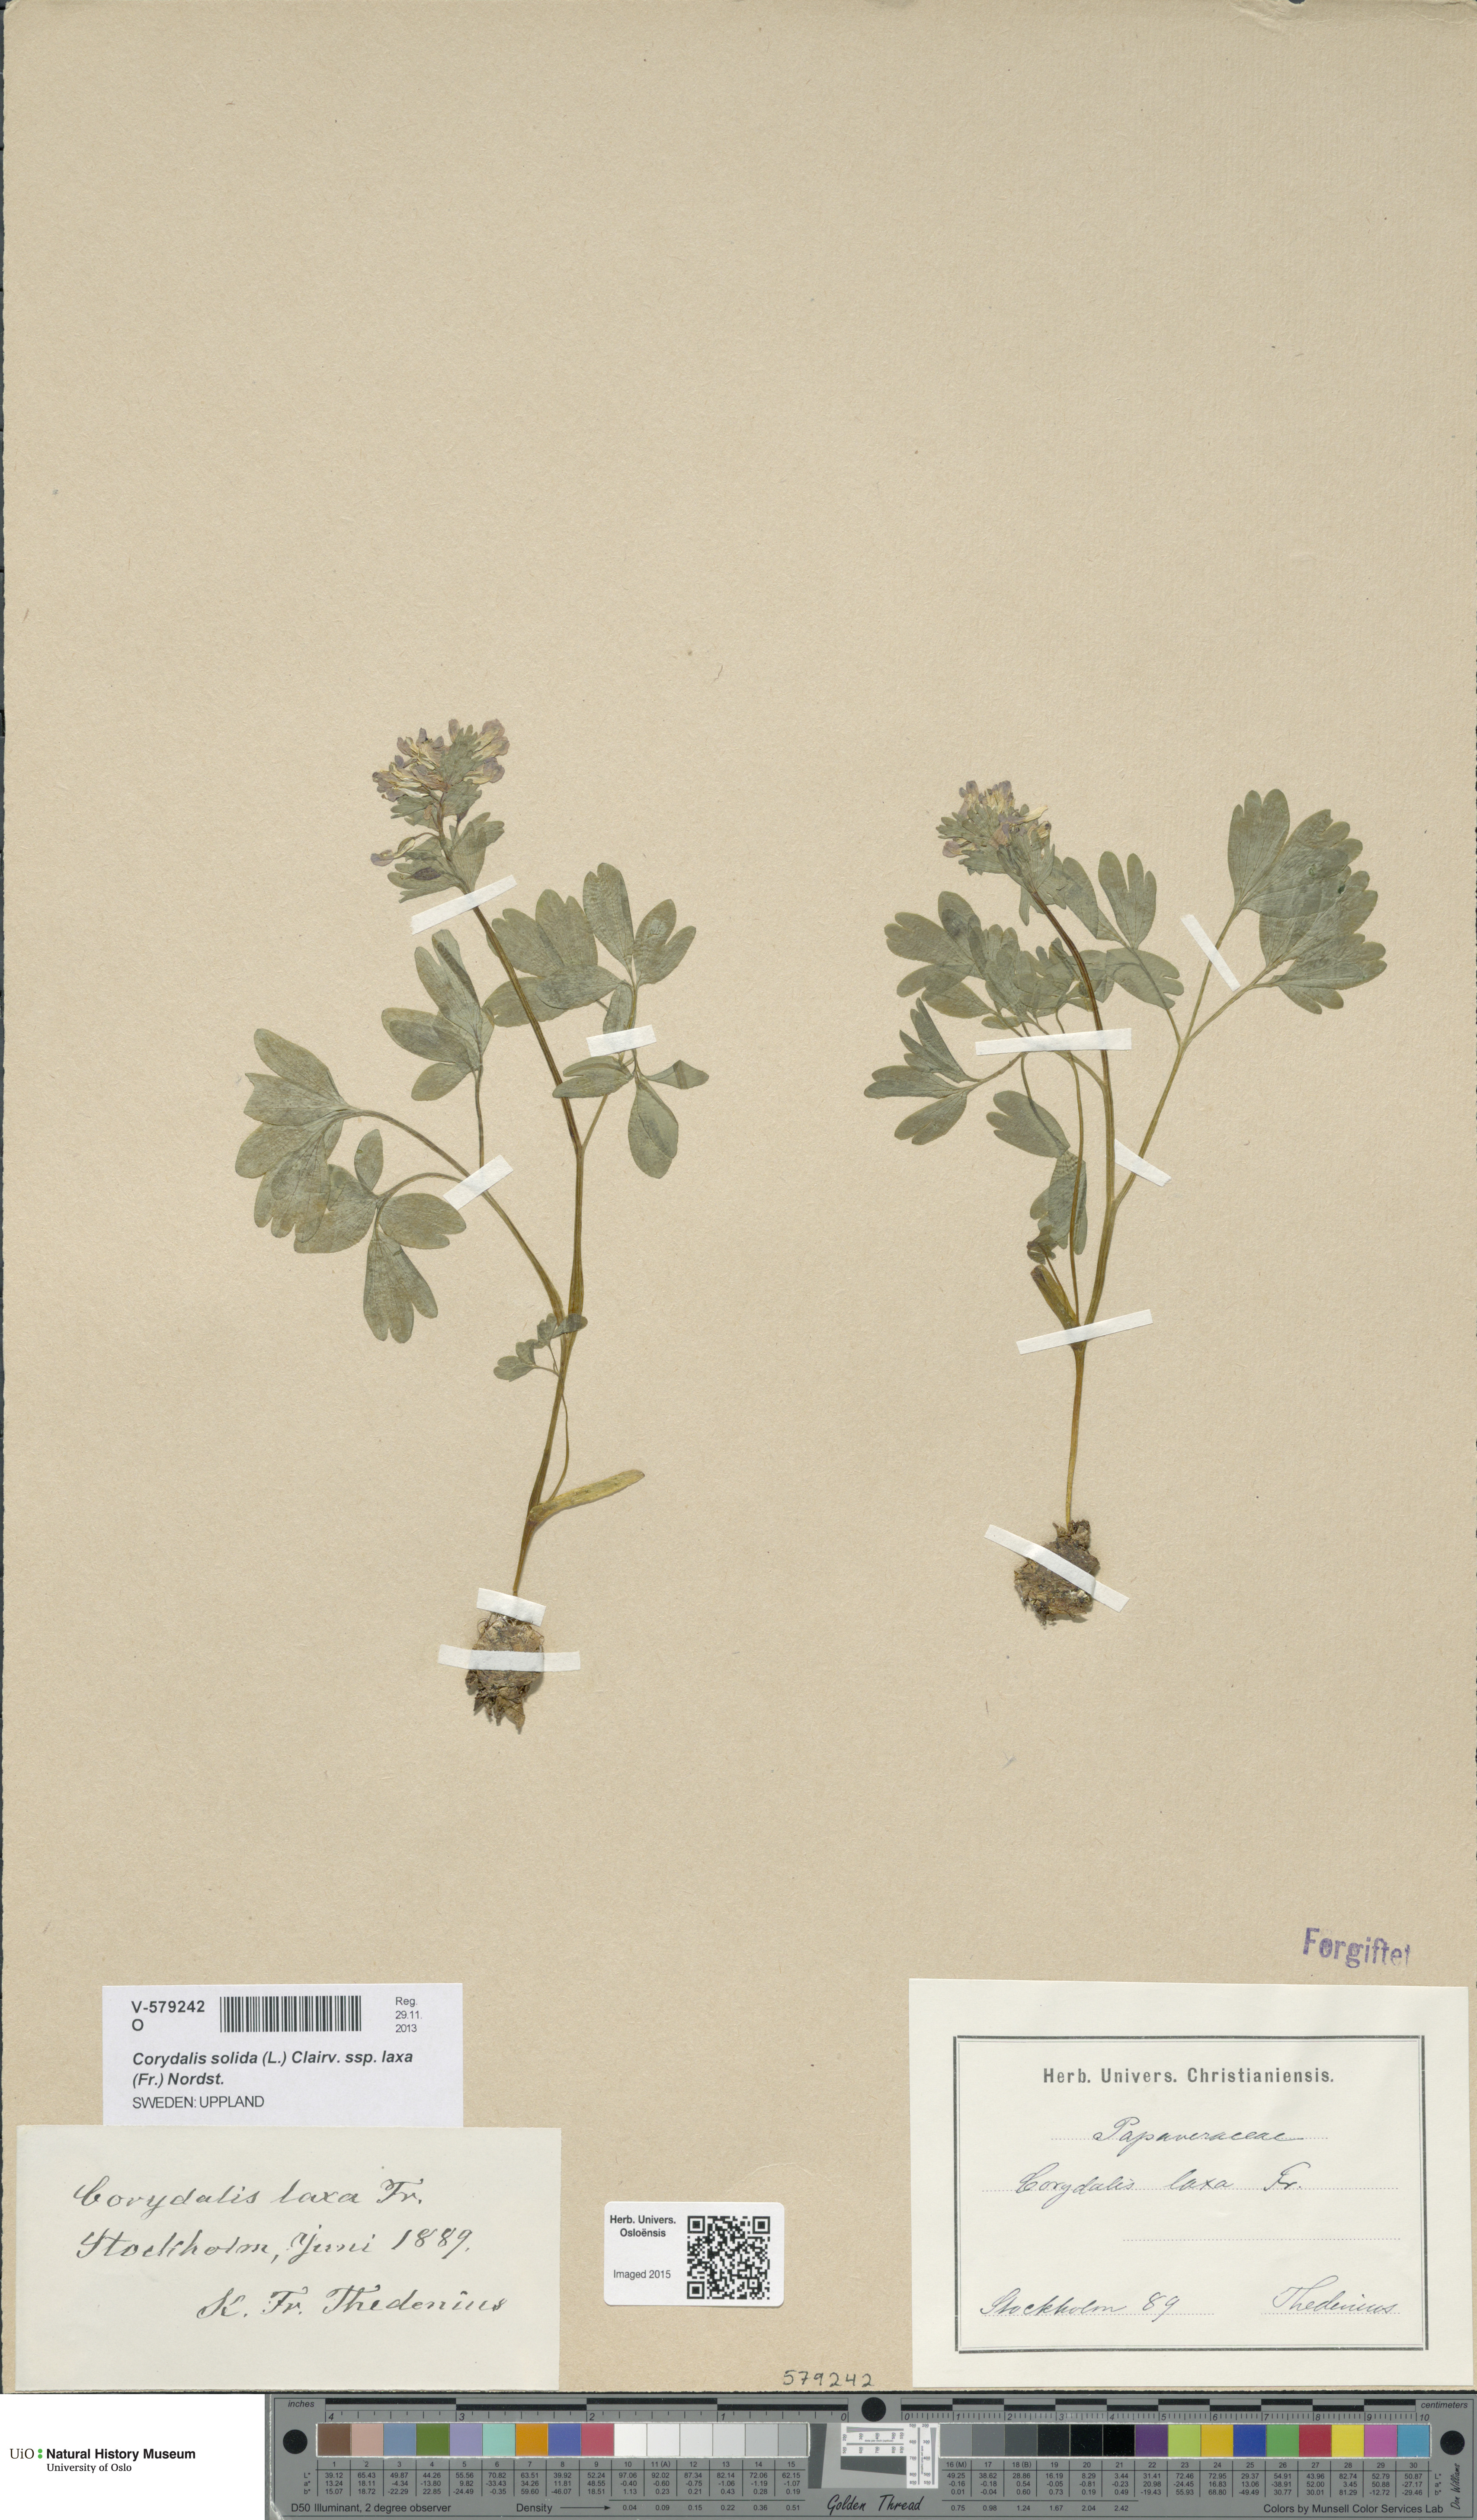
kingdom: Plantae
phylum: Tracheophyta
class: Magnoliopsida
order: Ranunculales
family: Papaveraceae
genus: Corydalis
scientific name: Corydalis solida
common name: Bird-in-a-bush
